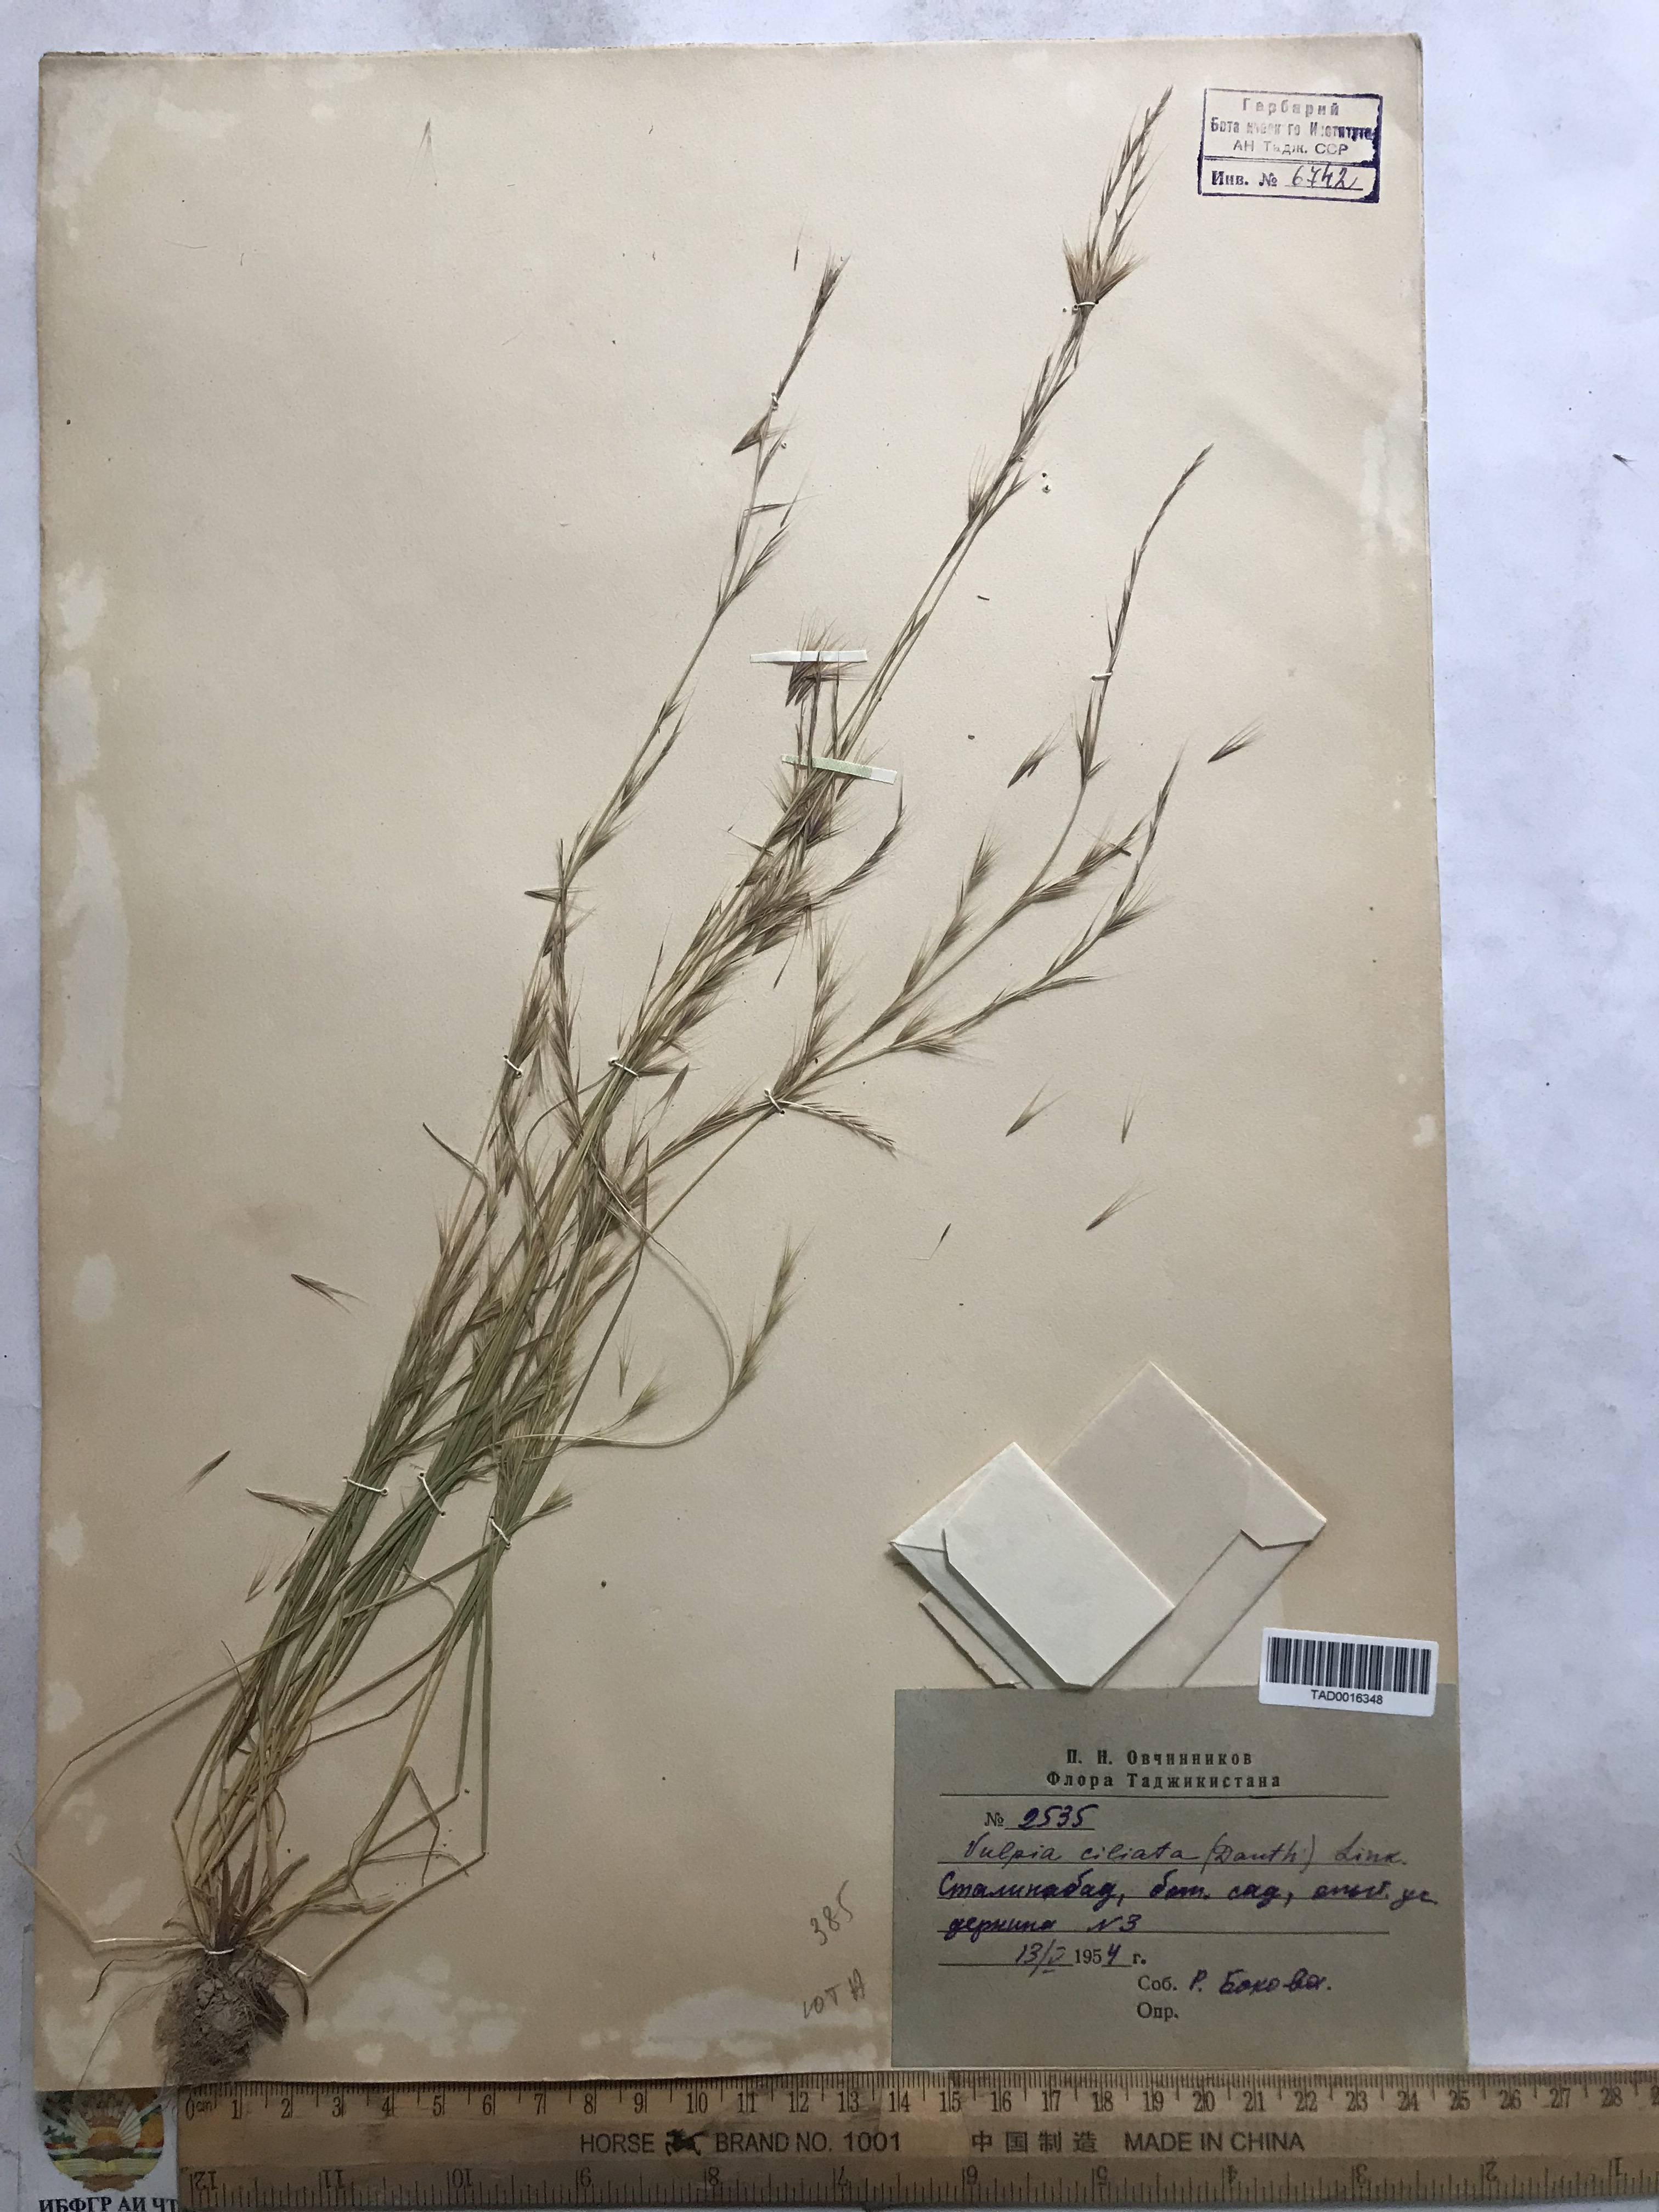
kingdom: Plantae
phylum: Tracheophyta
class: Liliopsida
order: Poales
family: Poaceae
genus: Festuca
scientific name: Festuca ambigua
